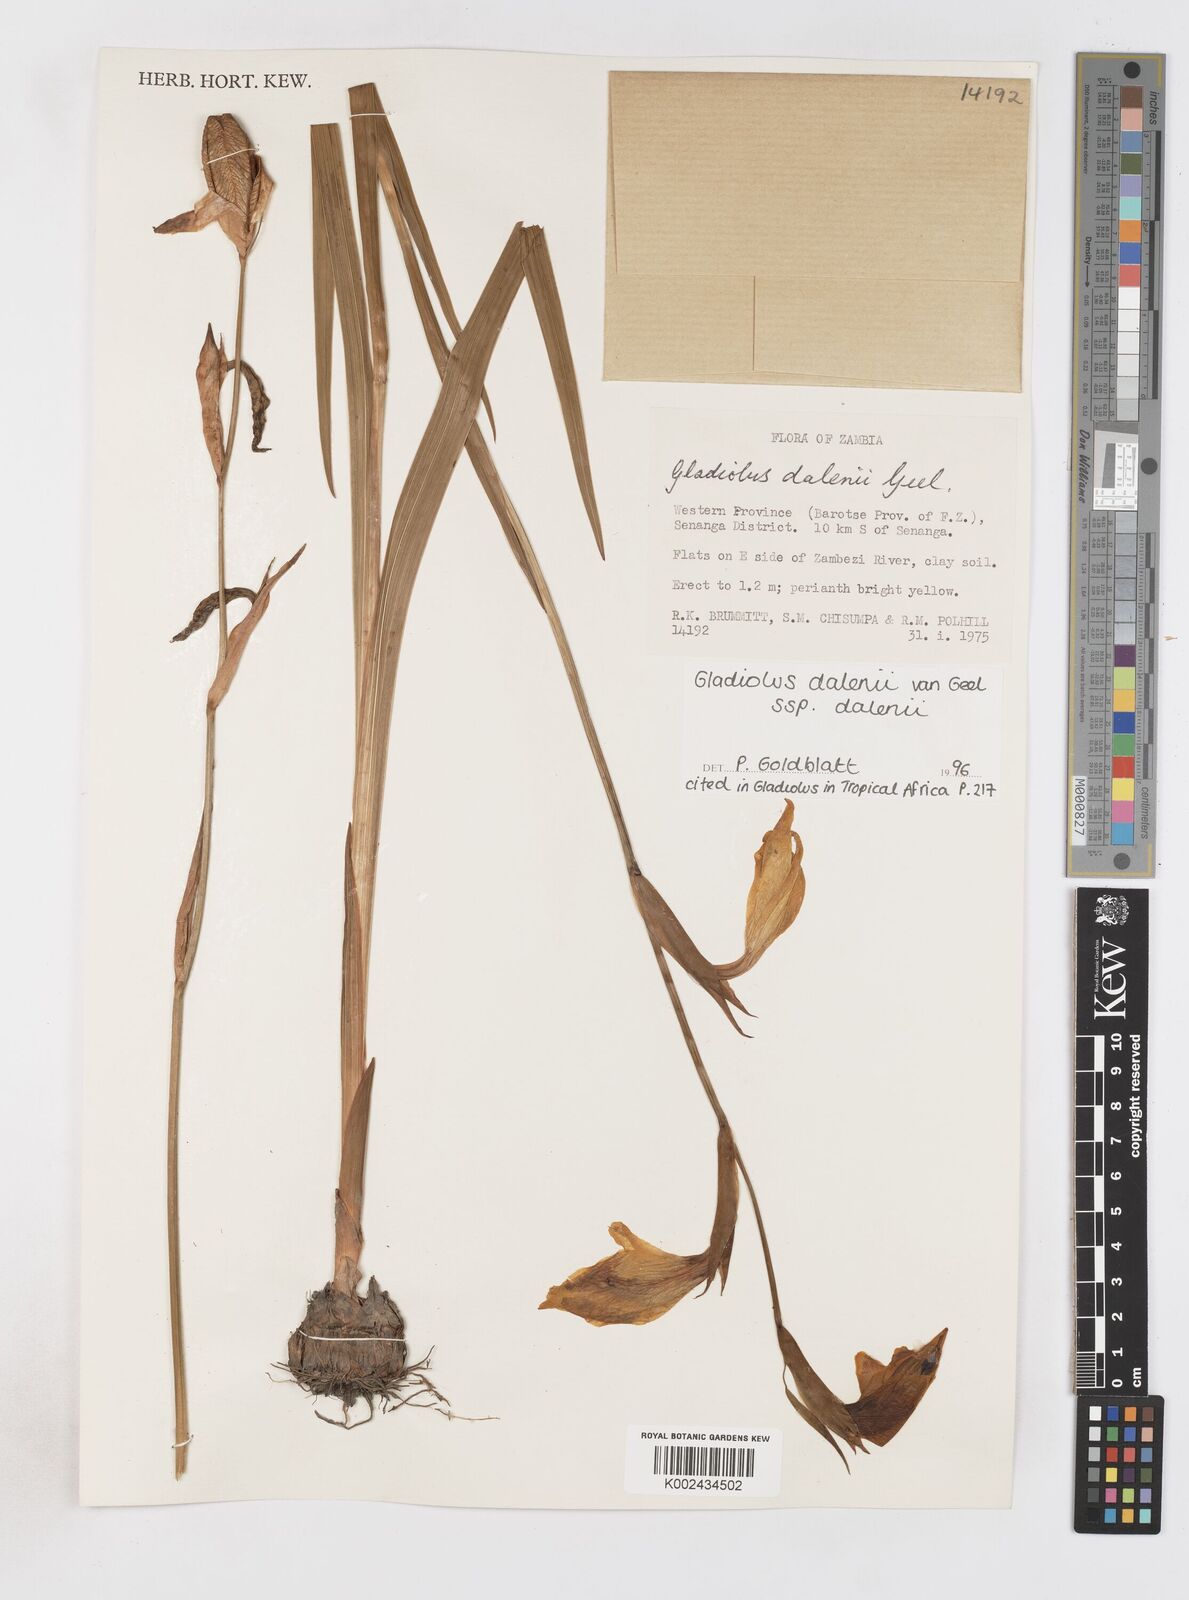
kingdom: Plantae
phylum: Tracheophyta
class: Liliopsida
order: Asparagales
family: Iridaceae
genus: Gladiolus
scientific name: Gladiolus dalenii
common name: Cornflag
